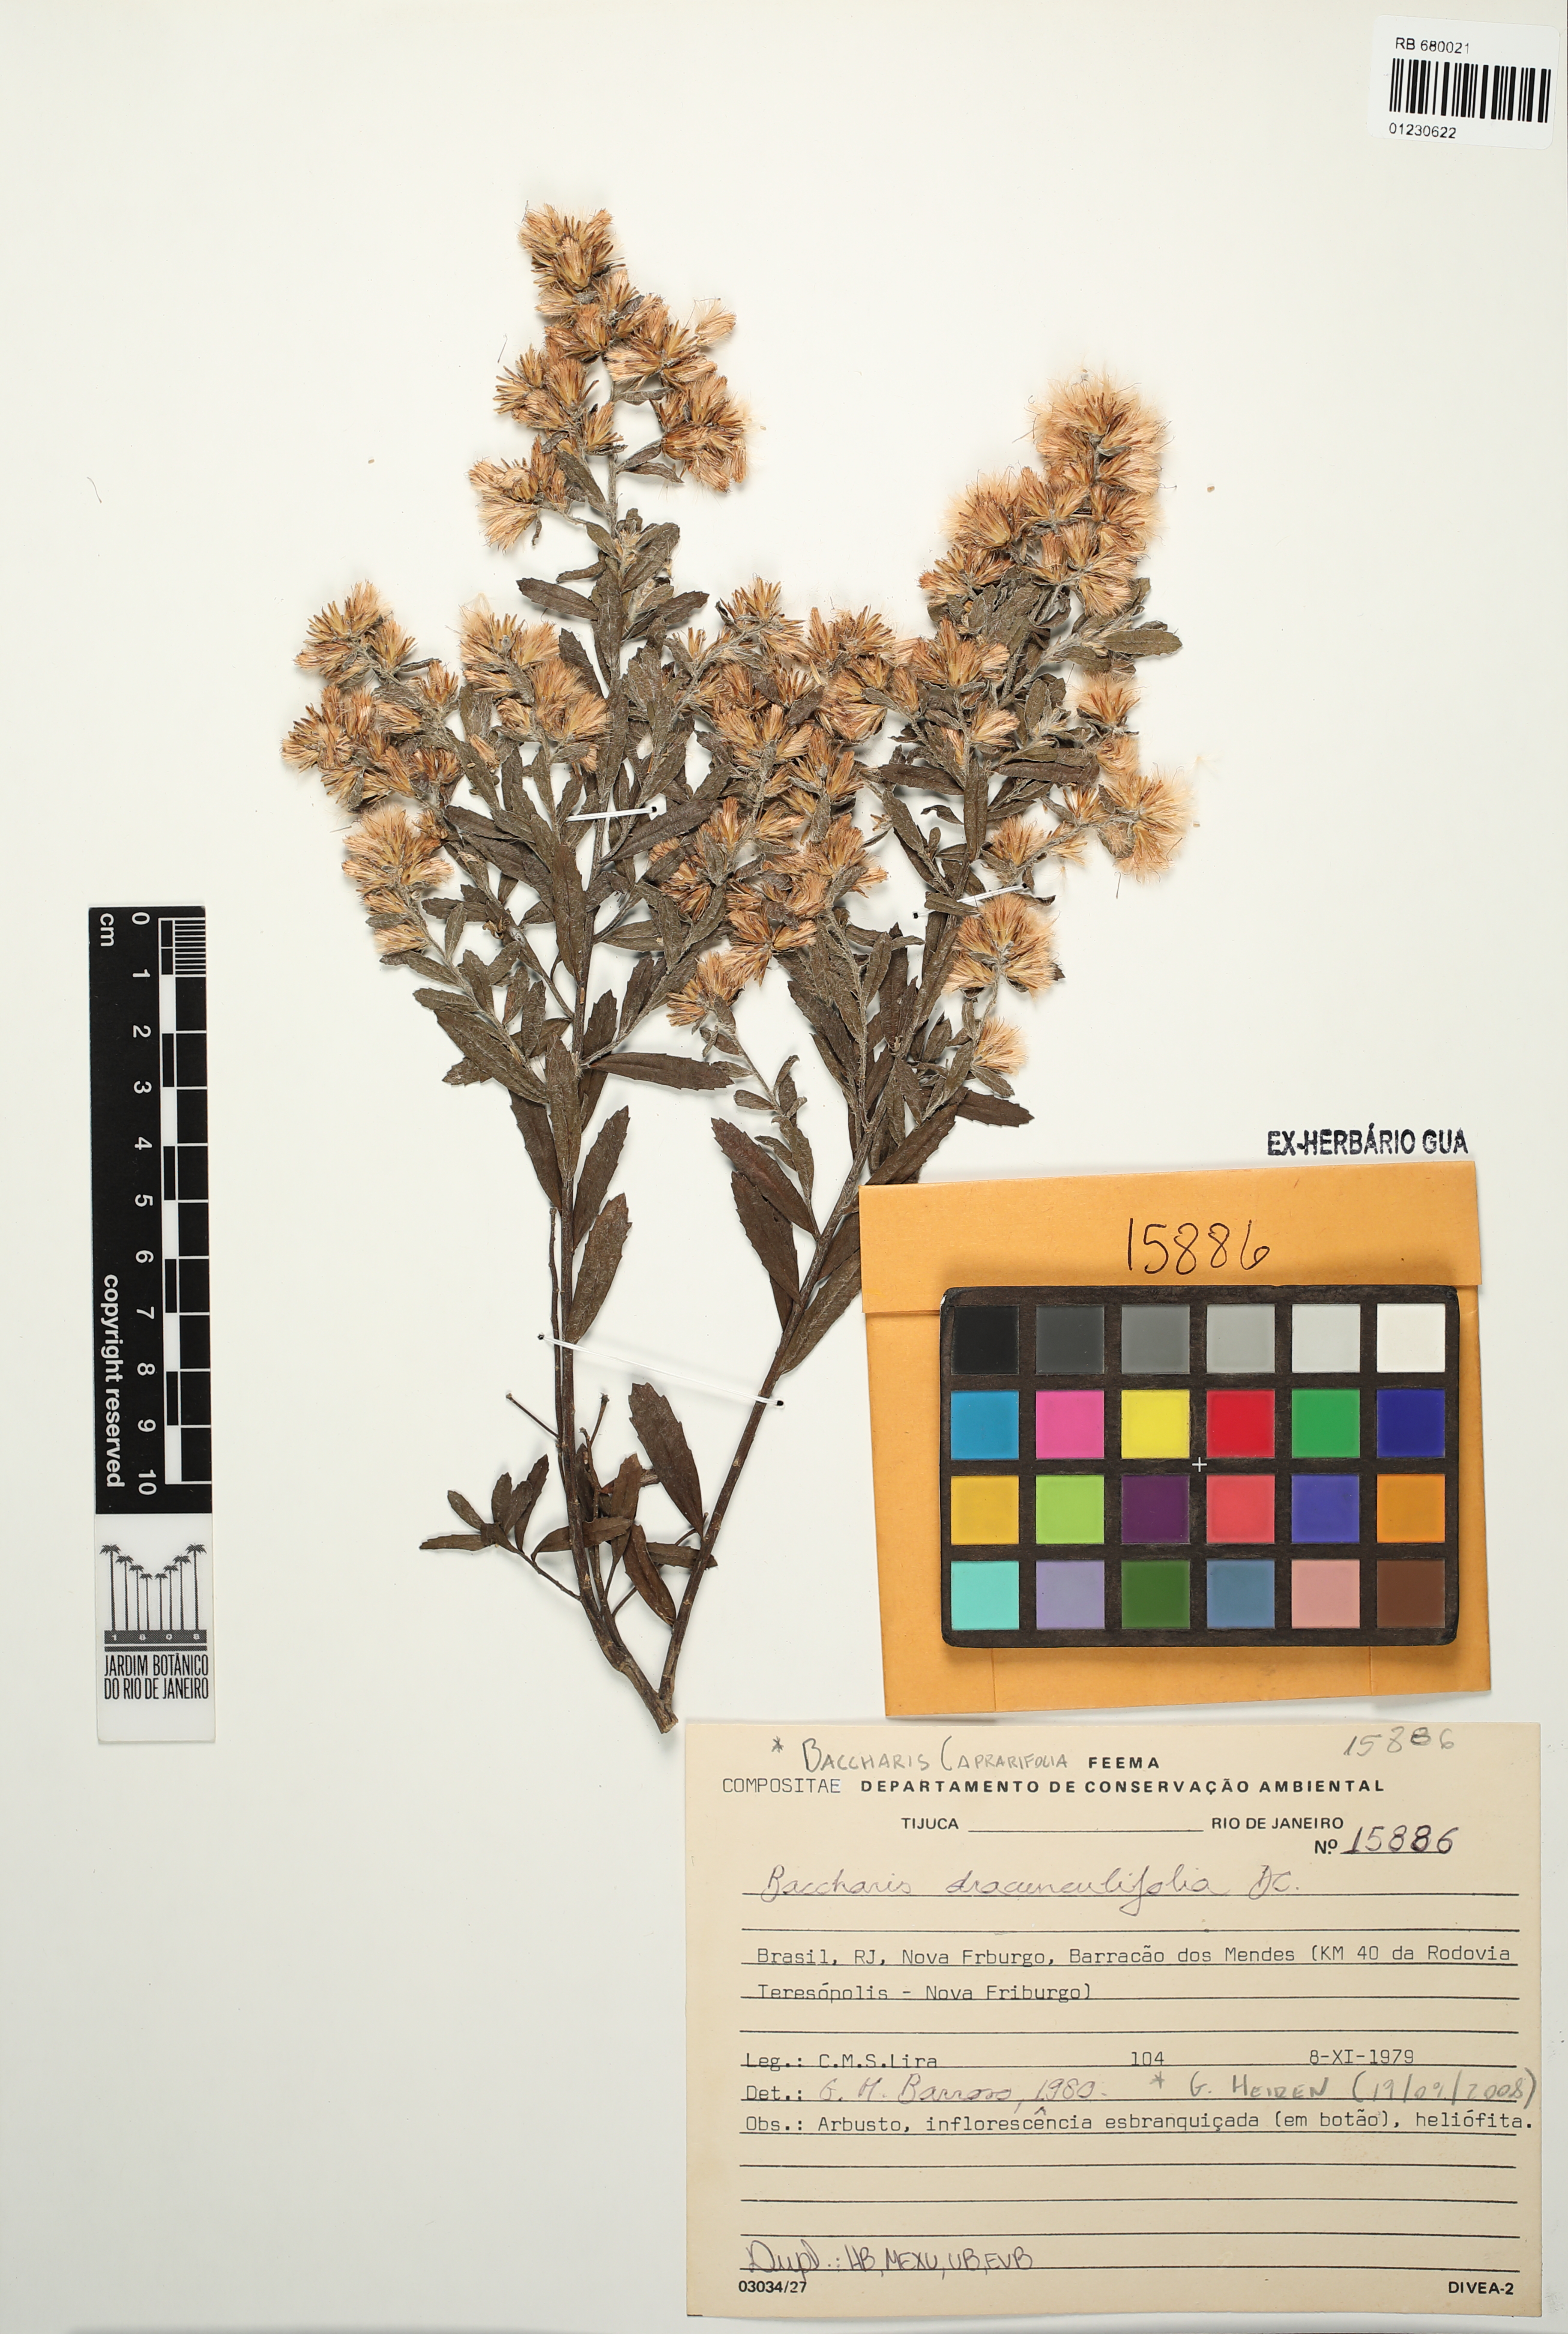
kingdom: Plantae
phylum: Tracheophyta
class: Magnoliopsida
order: Asterales
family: Asteraceae
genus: Baccharis
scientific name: Baccharis caprariifolia
